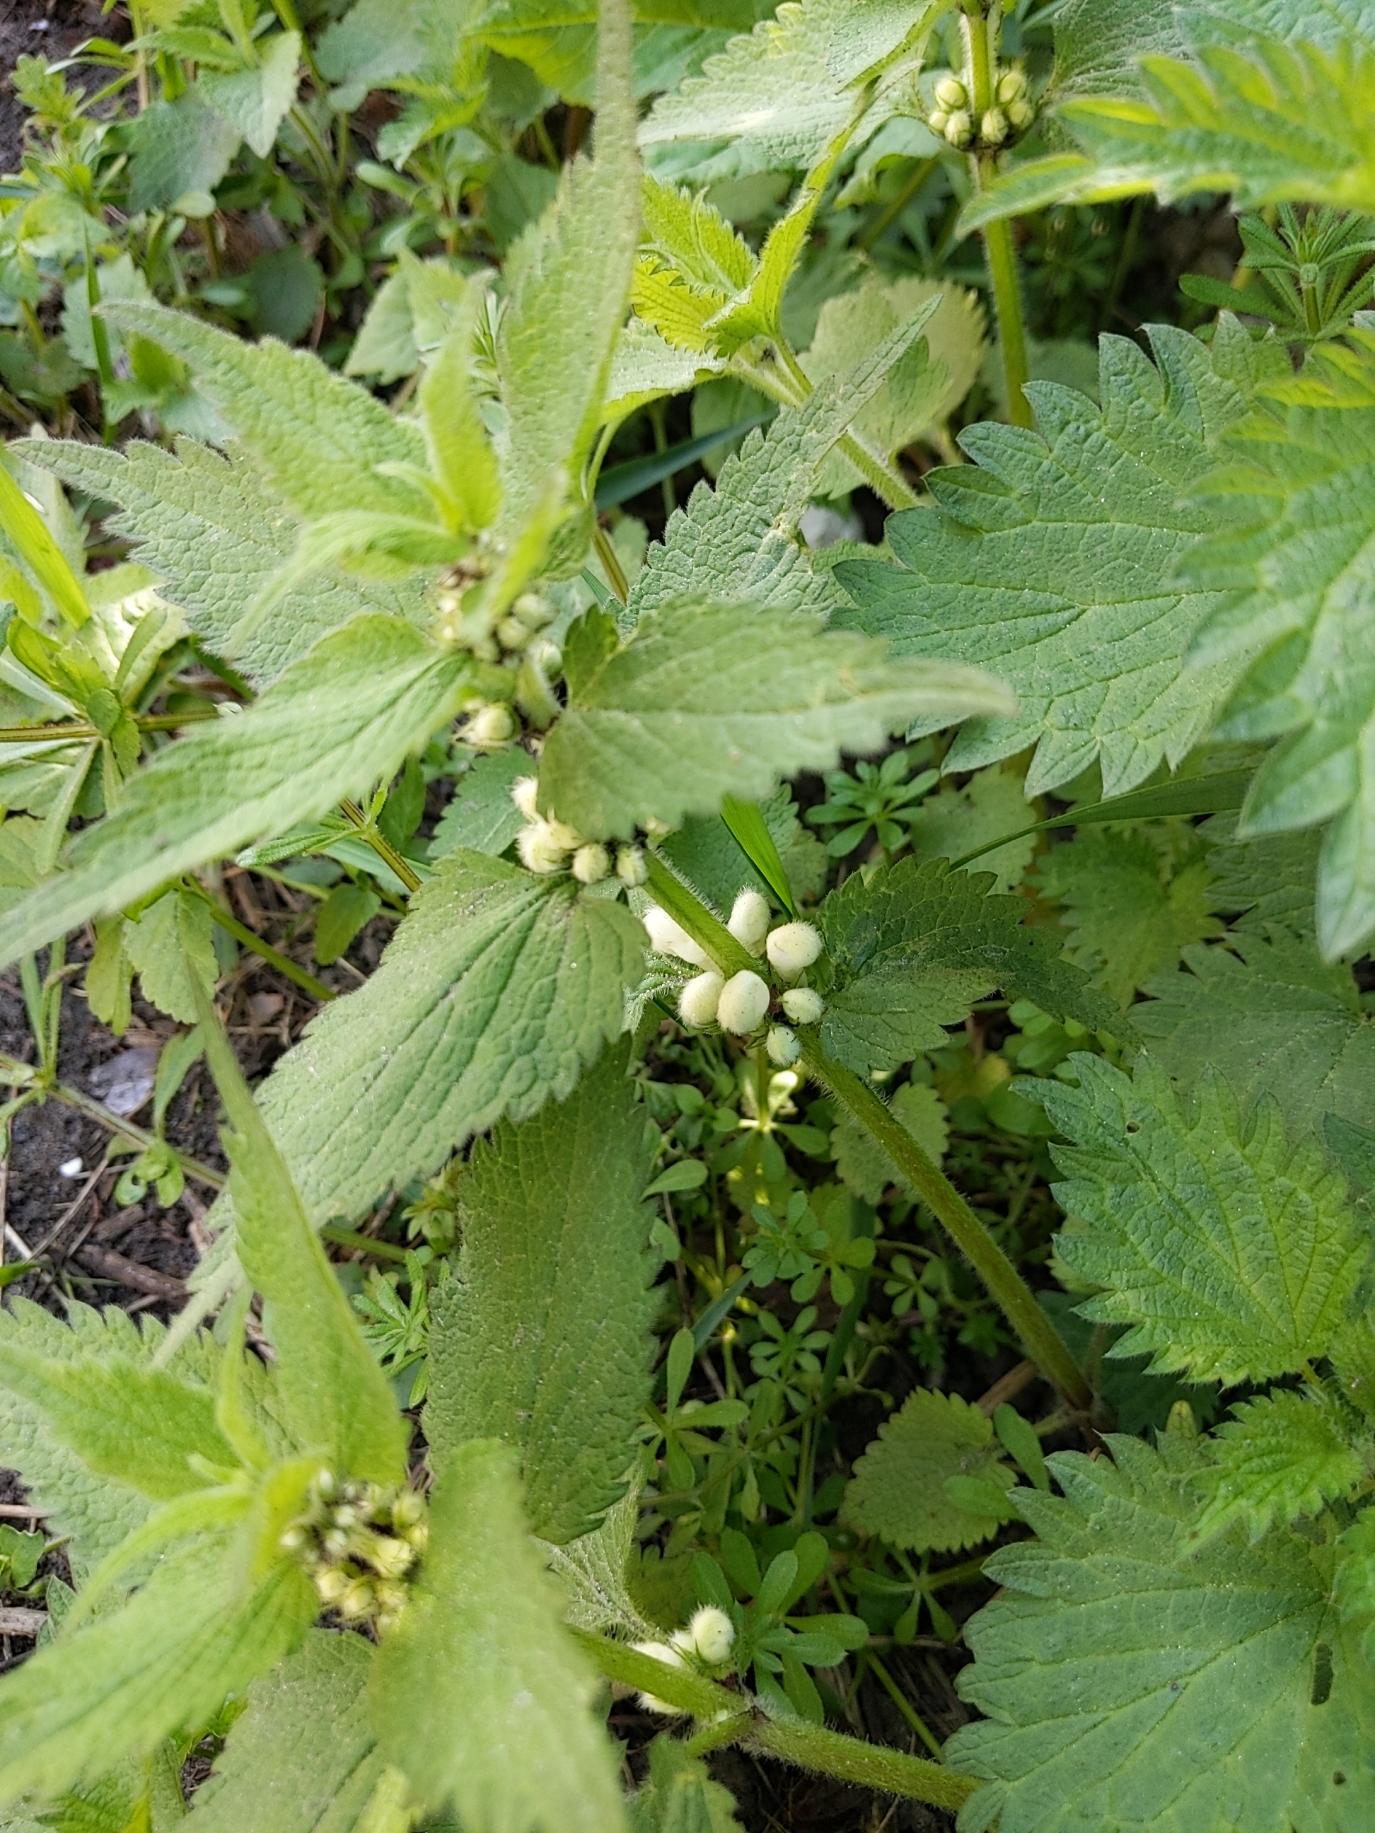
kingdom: Plantae
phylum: Tracheophyta
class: Magnoliopsida
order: Lamiales
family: Lamiaceae
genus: Lamium
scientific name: Lamium album
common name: Døvnælde
